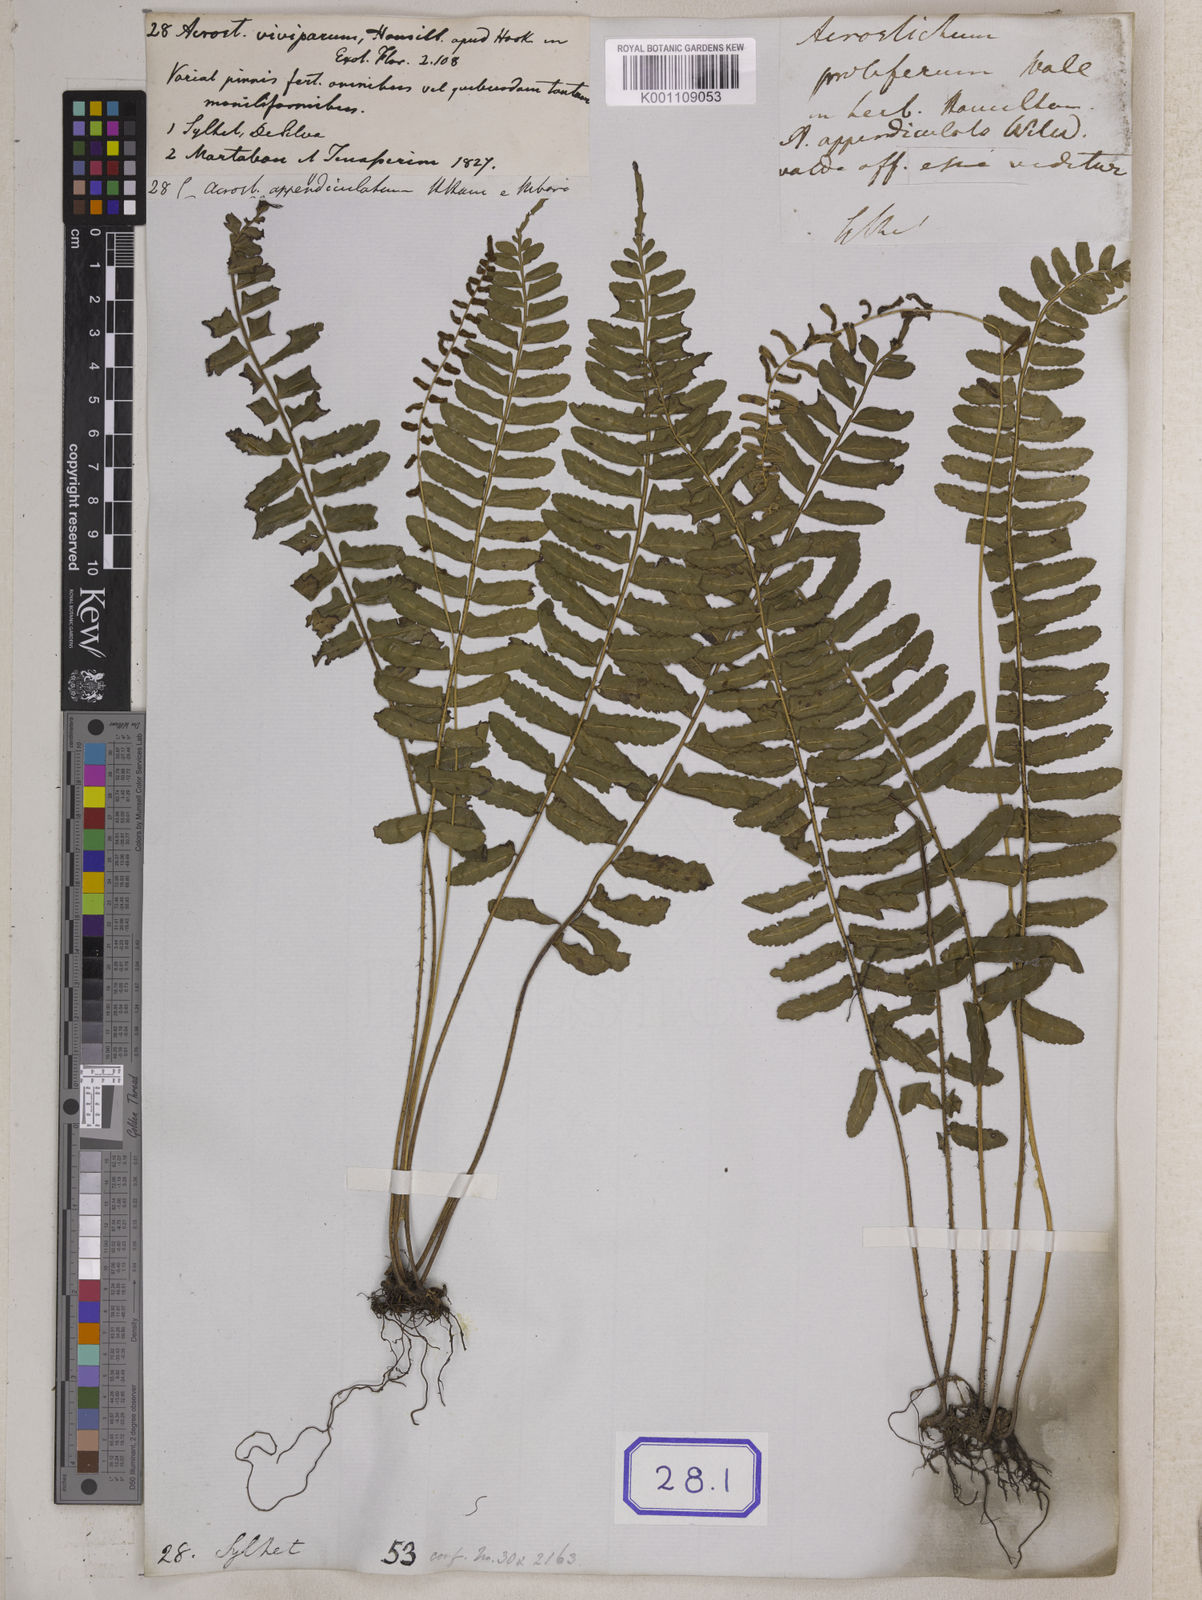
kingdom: Plantae
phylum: Tracheophyta
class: Polypodiopsida
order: Polypodiales
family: Pteridaceae
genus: Acrostichum
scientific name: Acrostichum
